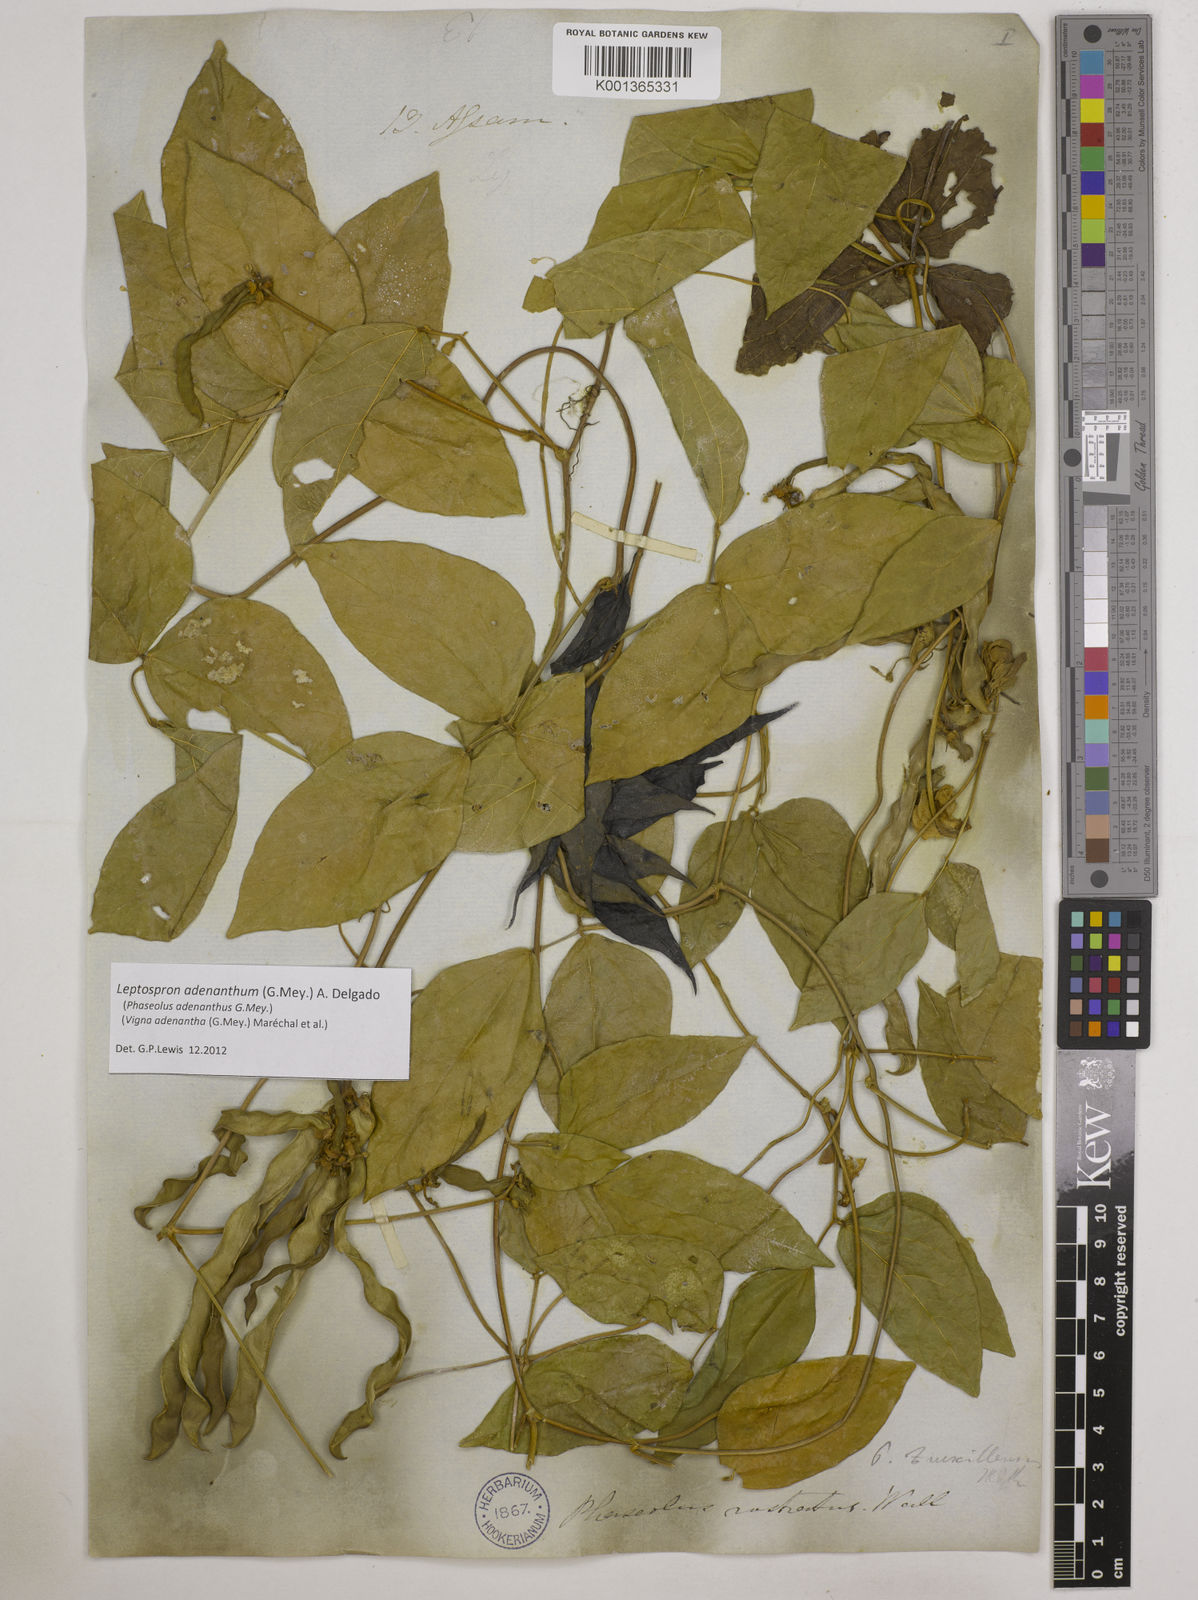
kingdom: Plantae
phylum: Tracheophyta
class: Magnoliopsida
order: Fabales
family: Fabaceae
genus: Leptospron
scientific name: Leptospron adenanthum
